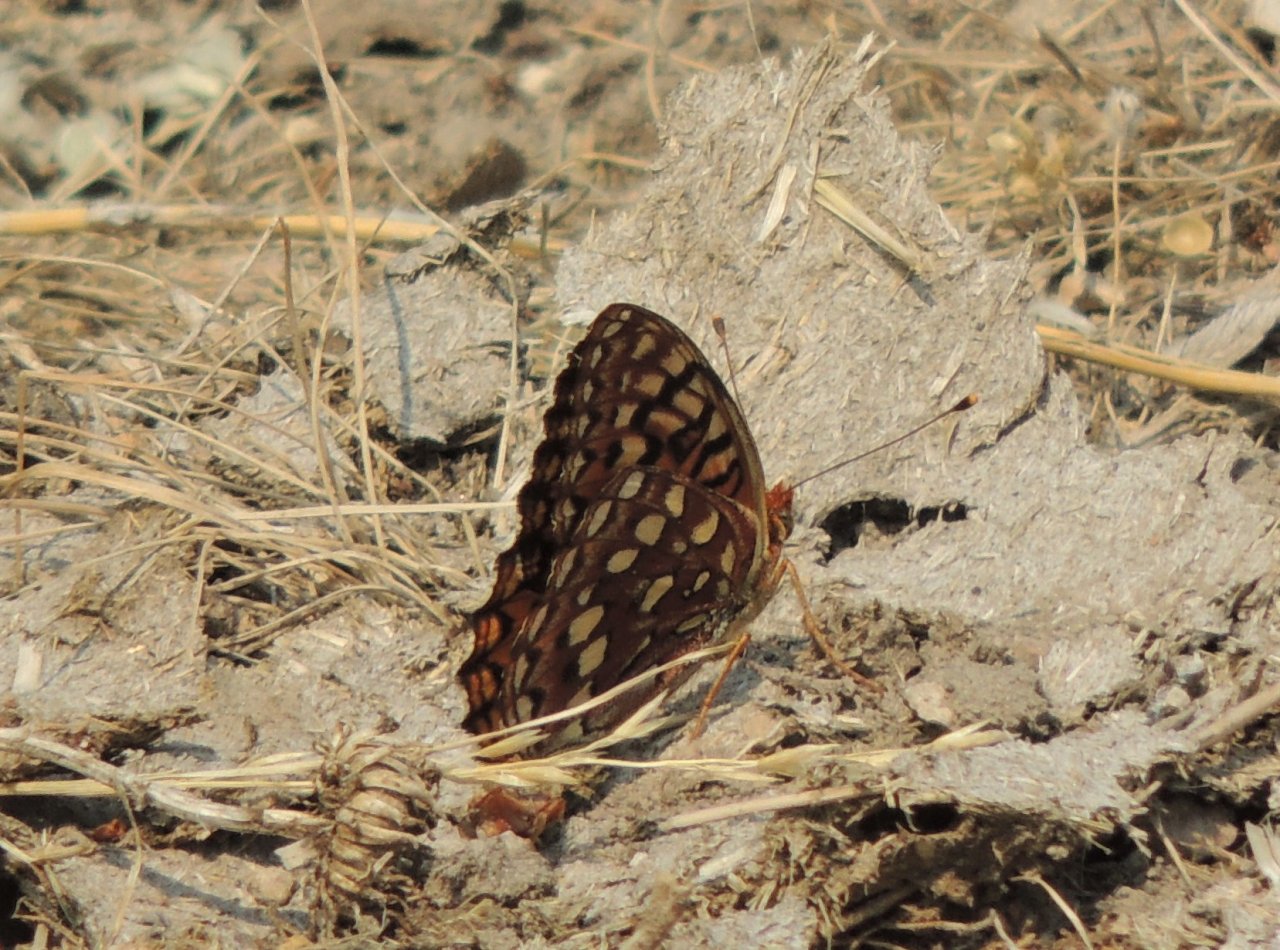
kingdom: Animalia
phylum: Arthropoda
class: Insecta
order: Lepidoptera
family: Nymphalidae
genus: Speyeria
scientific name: Speyeria hydaspe
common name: Hydaspe Fritillary
